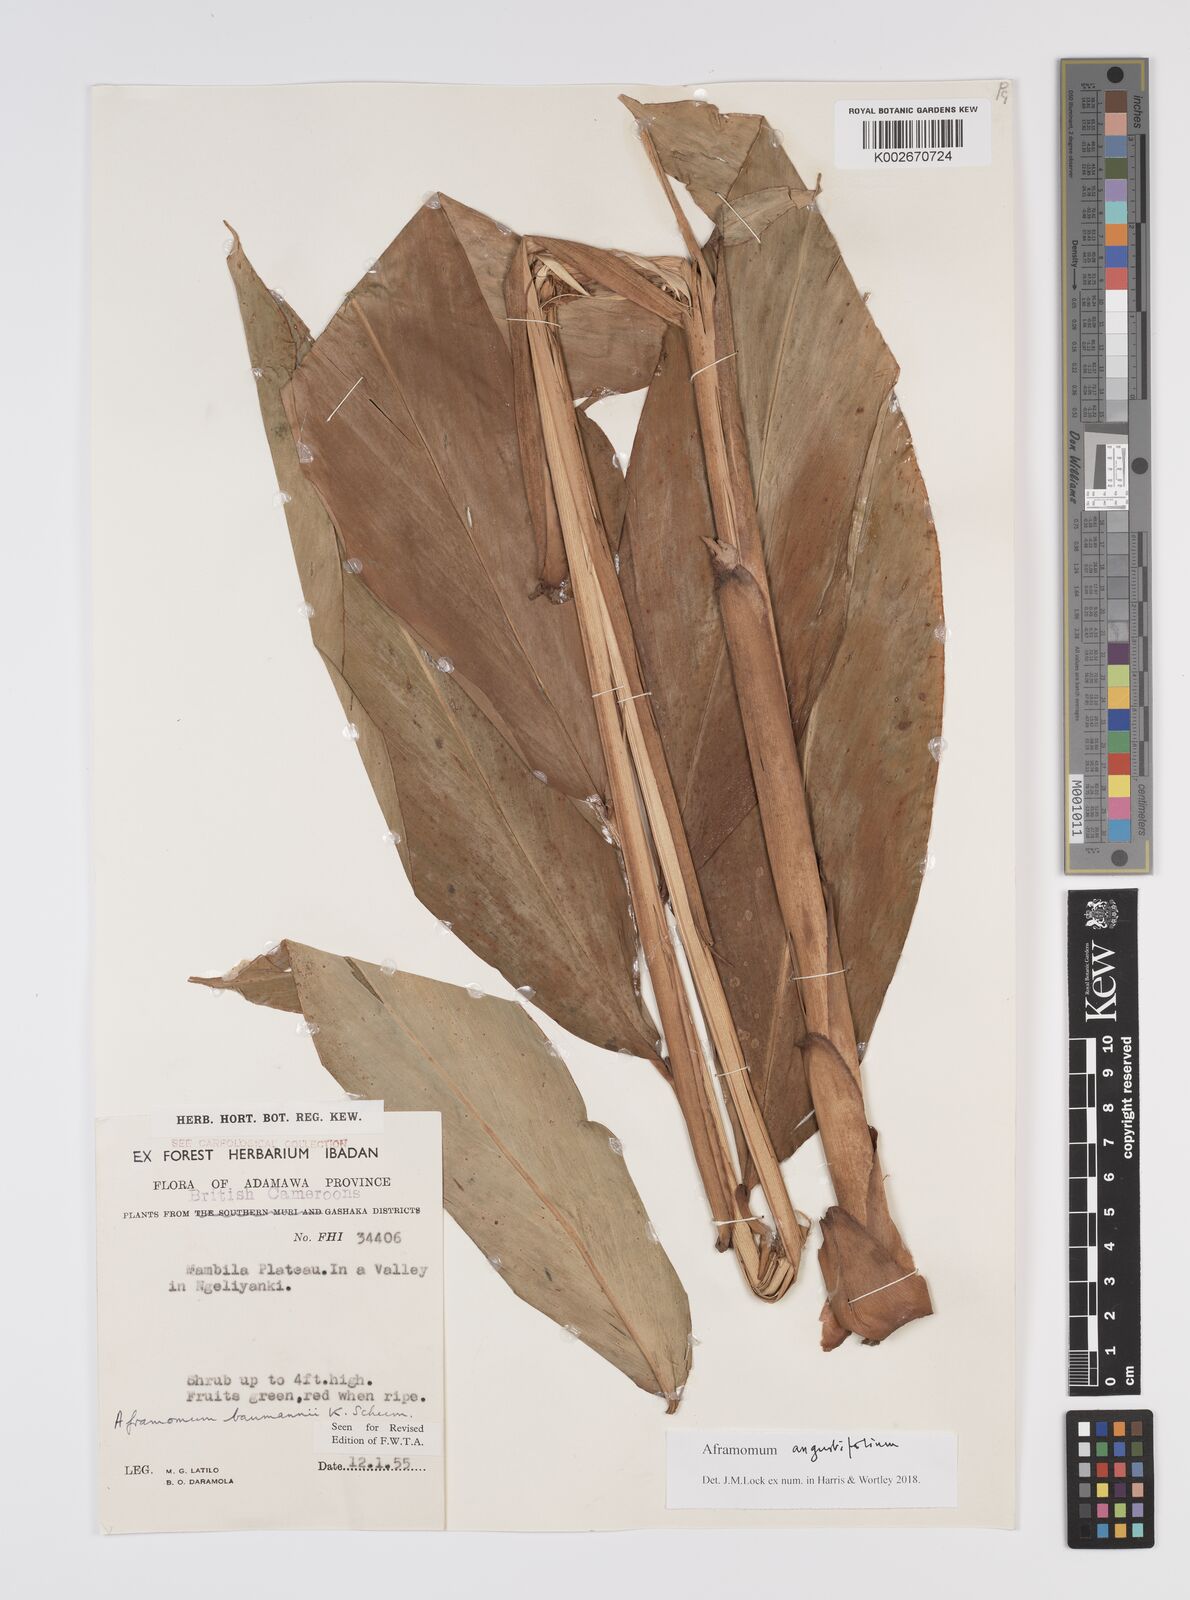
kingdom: Plantae
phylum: Tracheophyta
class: Liliopsida
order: Zingiberales
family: Zingiberaceae
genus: Aframomum
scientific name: Aframomum angustifolium
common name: Guinea grains
